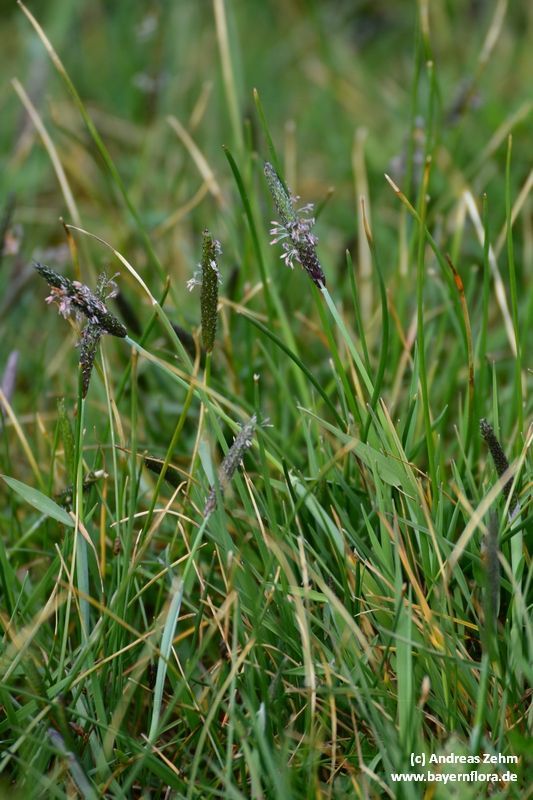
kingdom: Plantae
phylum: Tracheophyta
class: Liliopsida
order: Poales
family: Poaceae
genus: Alopecurus
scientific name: Alopecurus geniculatus
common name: Water foxtail
